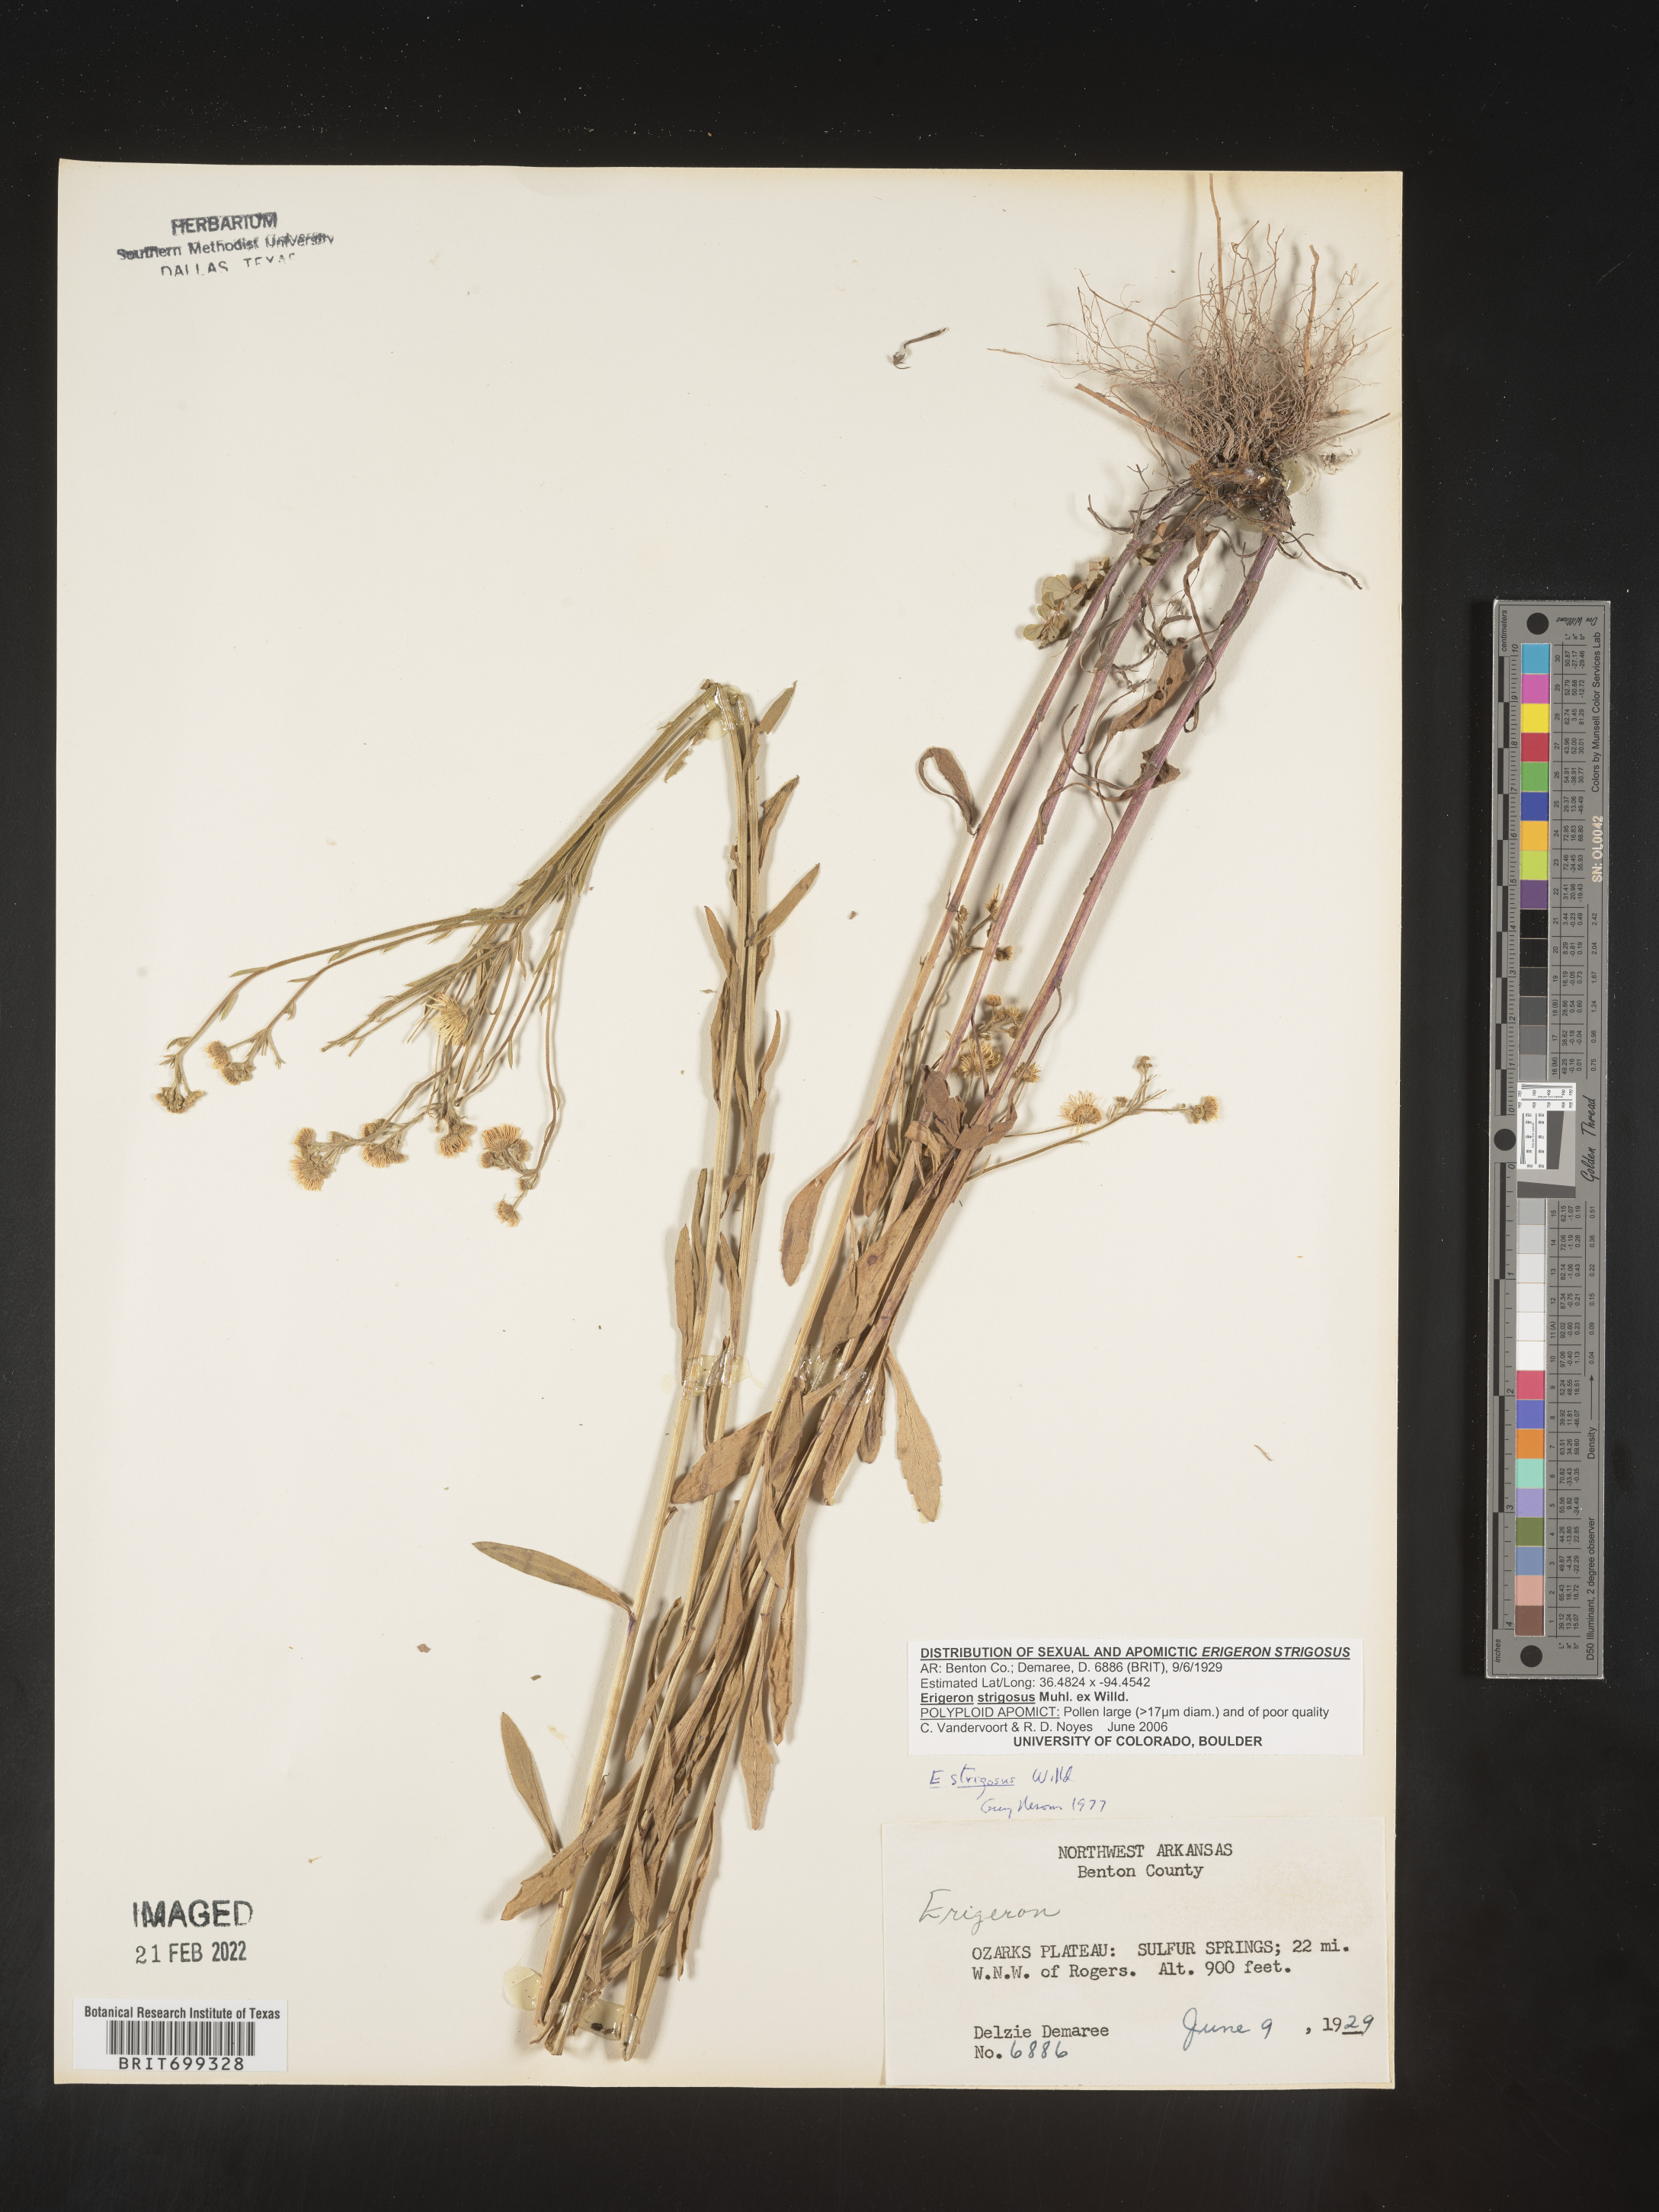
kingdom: Plantae
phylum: Tracheophyta
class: Magnoliopsida
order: Asterales
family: Asteraceae
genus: Erigeron
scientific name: Erigeron strigosus
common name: Common eastern fleabane
